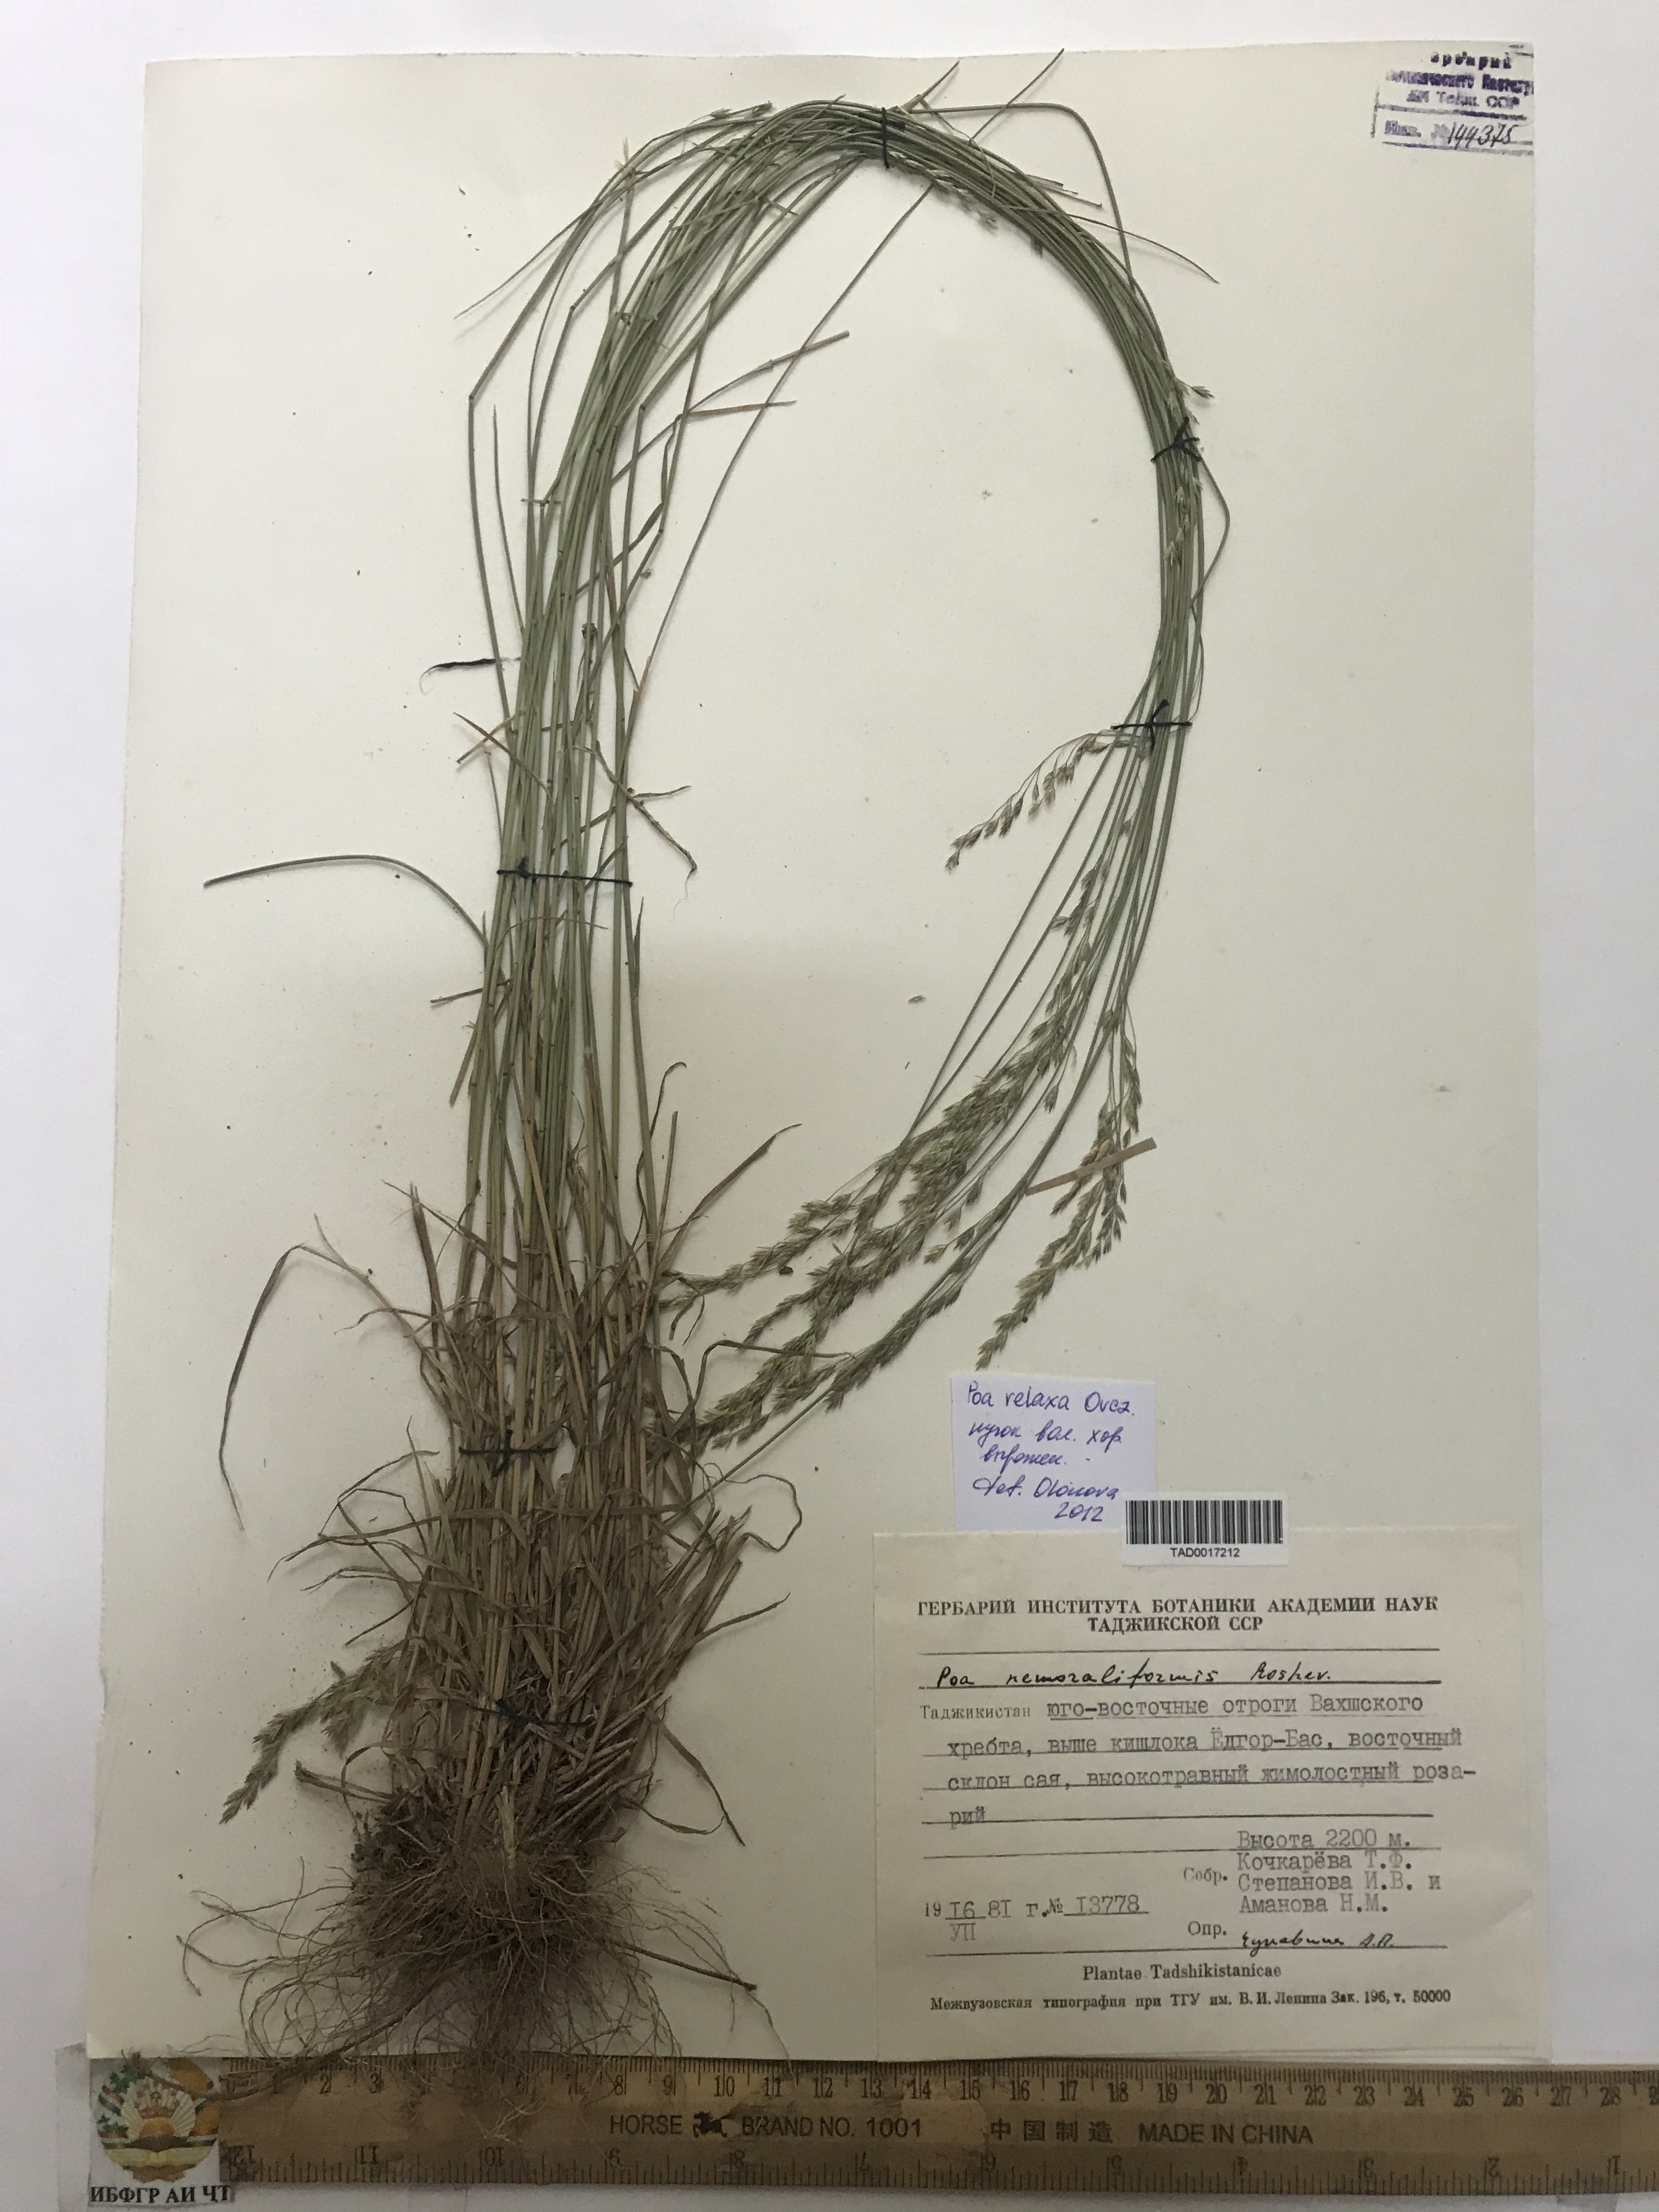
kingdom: Plantae
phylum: Tracheophyta
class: Liliopsida
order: Poales
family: Poaceae
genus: Poa
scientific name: Poa versicolor
